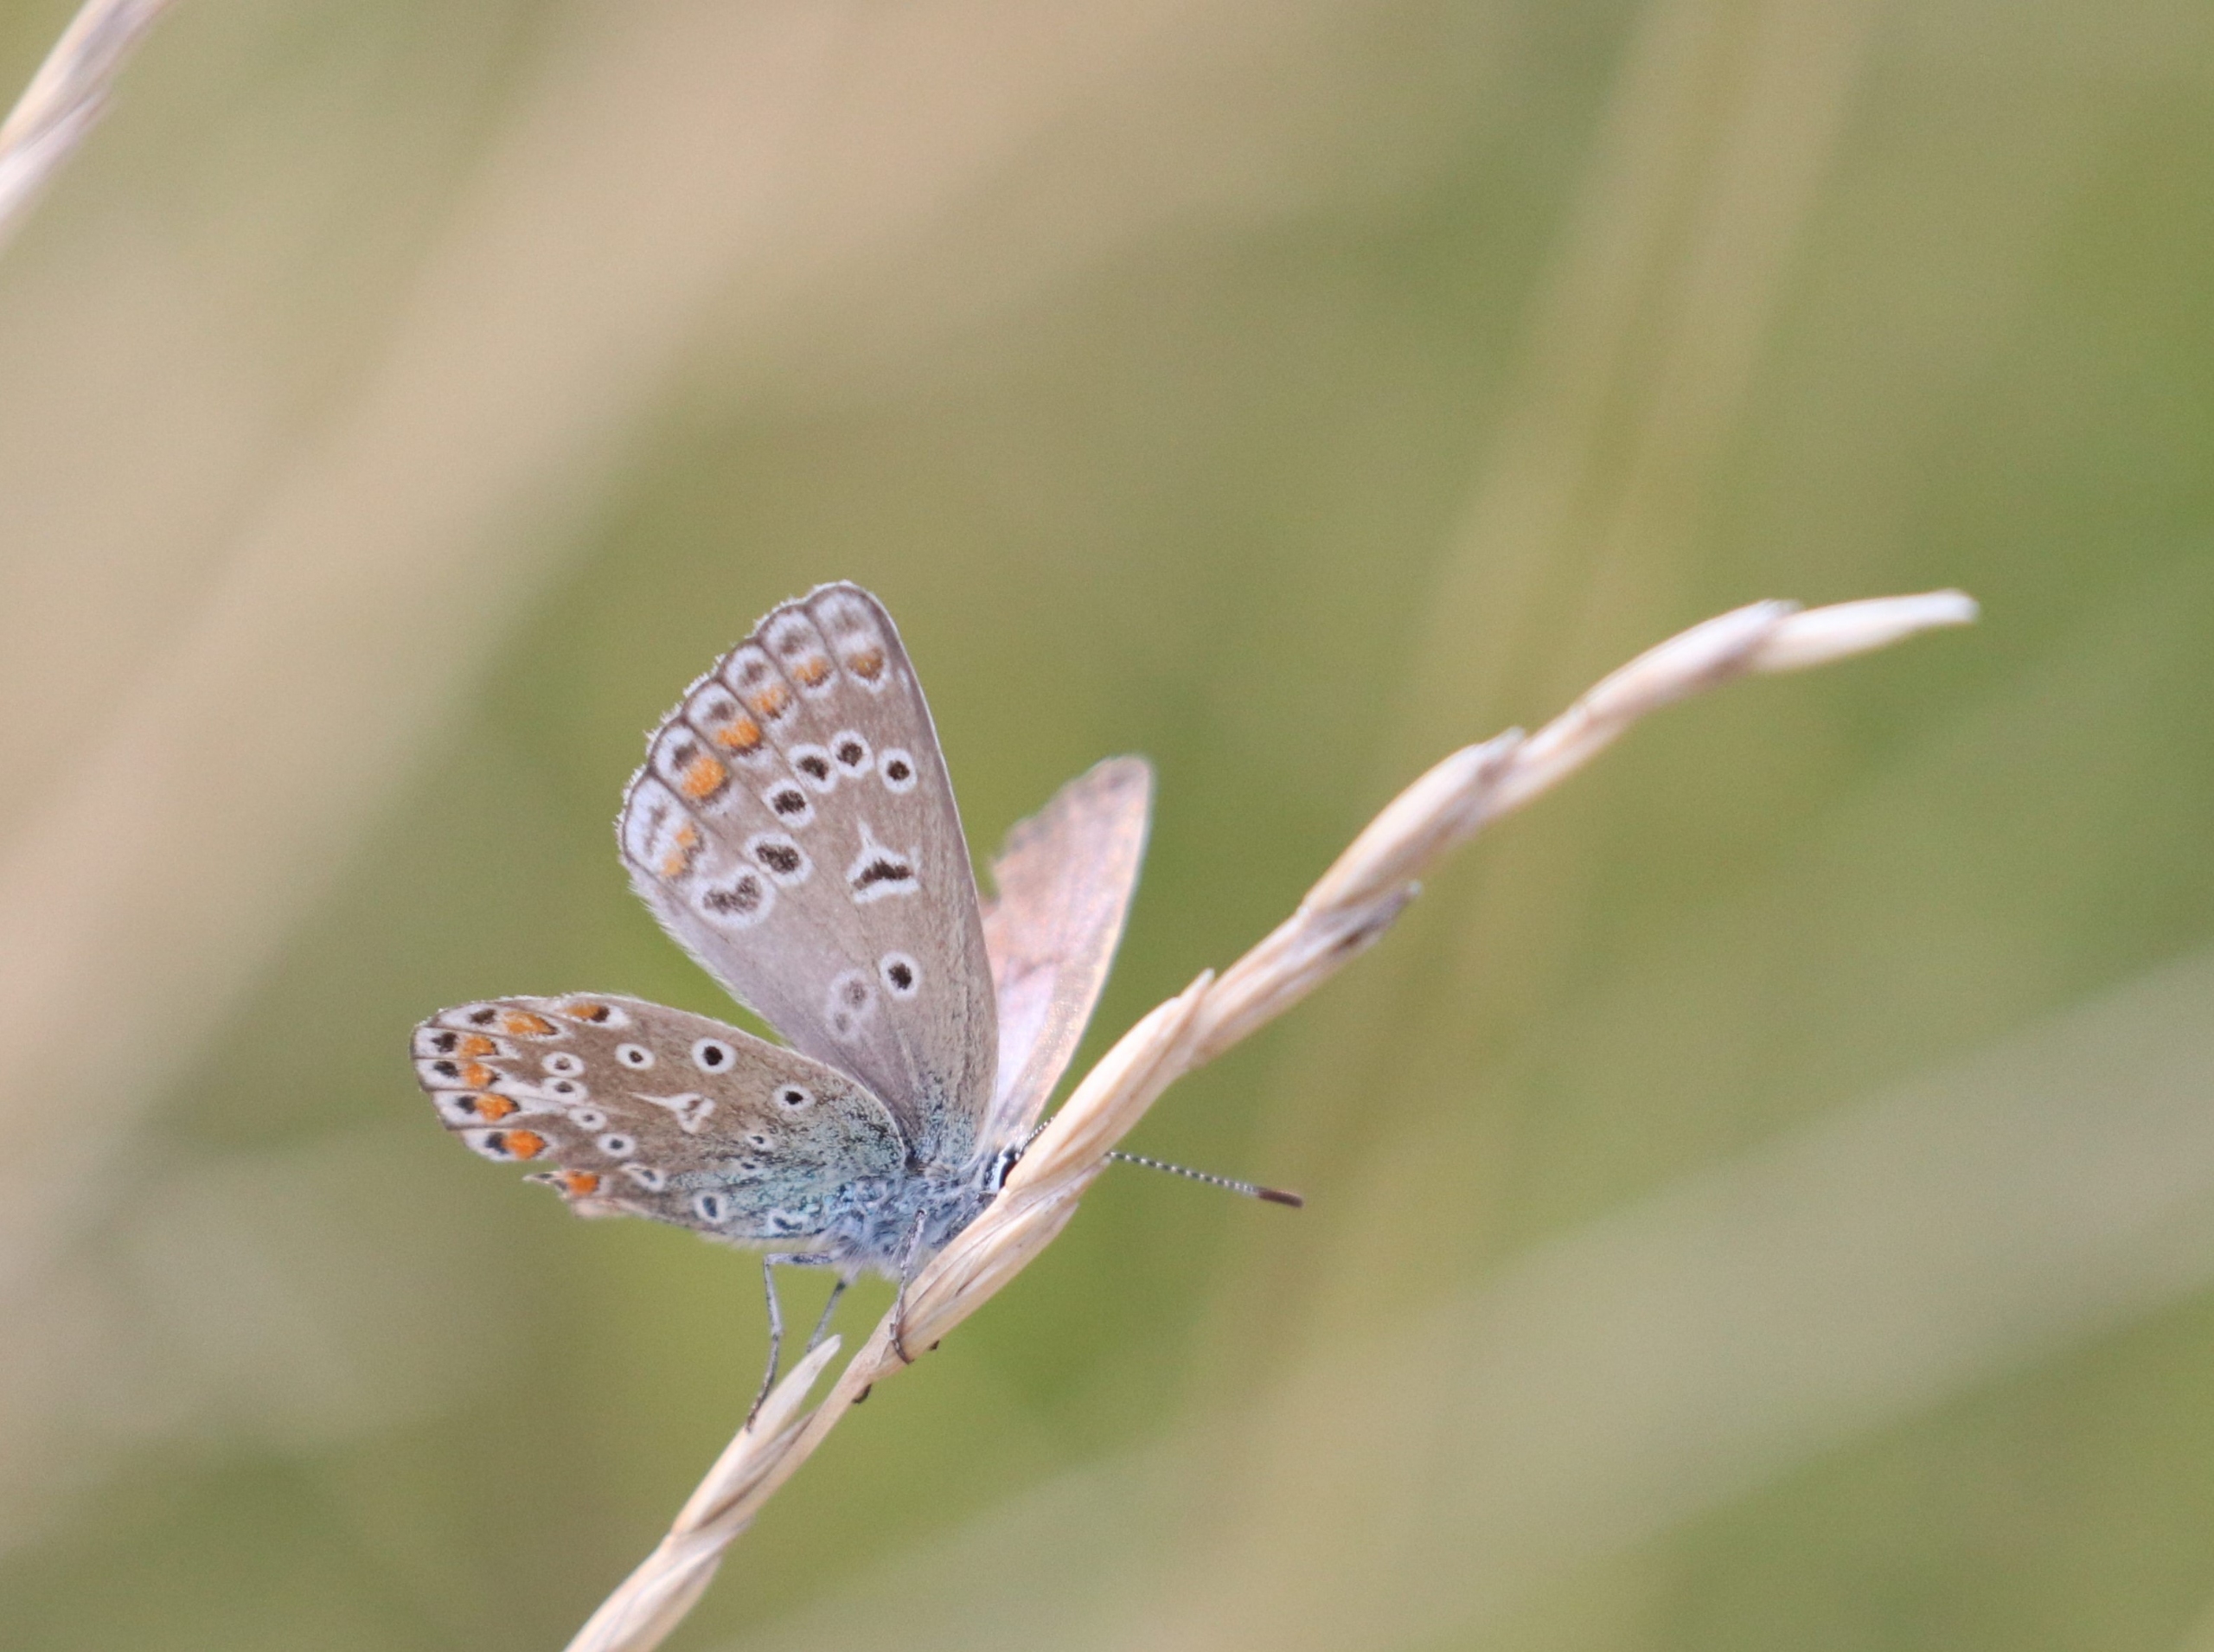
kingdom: Animalia
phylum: Arthropoda
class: Insecta
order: Lepidoptera
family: Lycaenidae
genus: Polyommatus
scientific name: Polyommatus icarus
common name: Almindelig blåfugl
